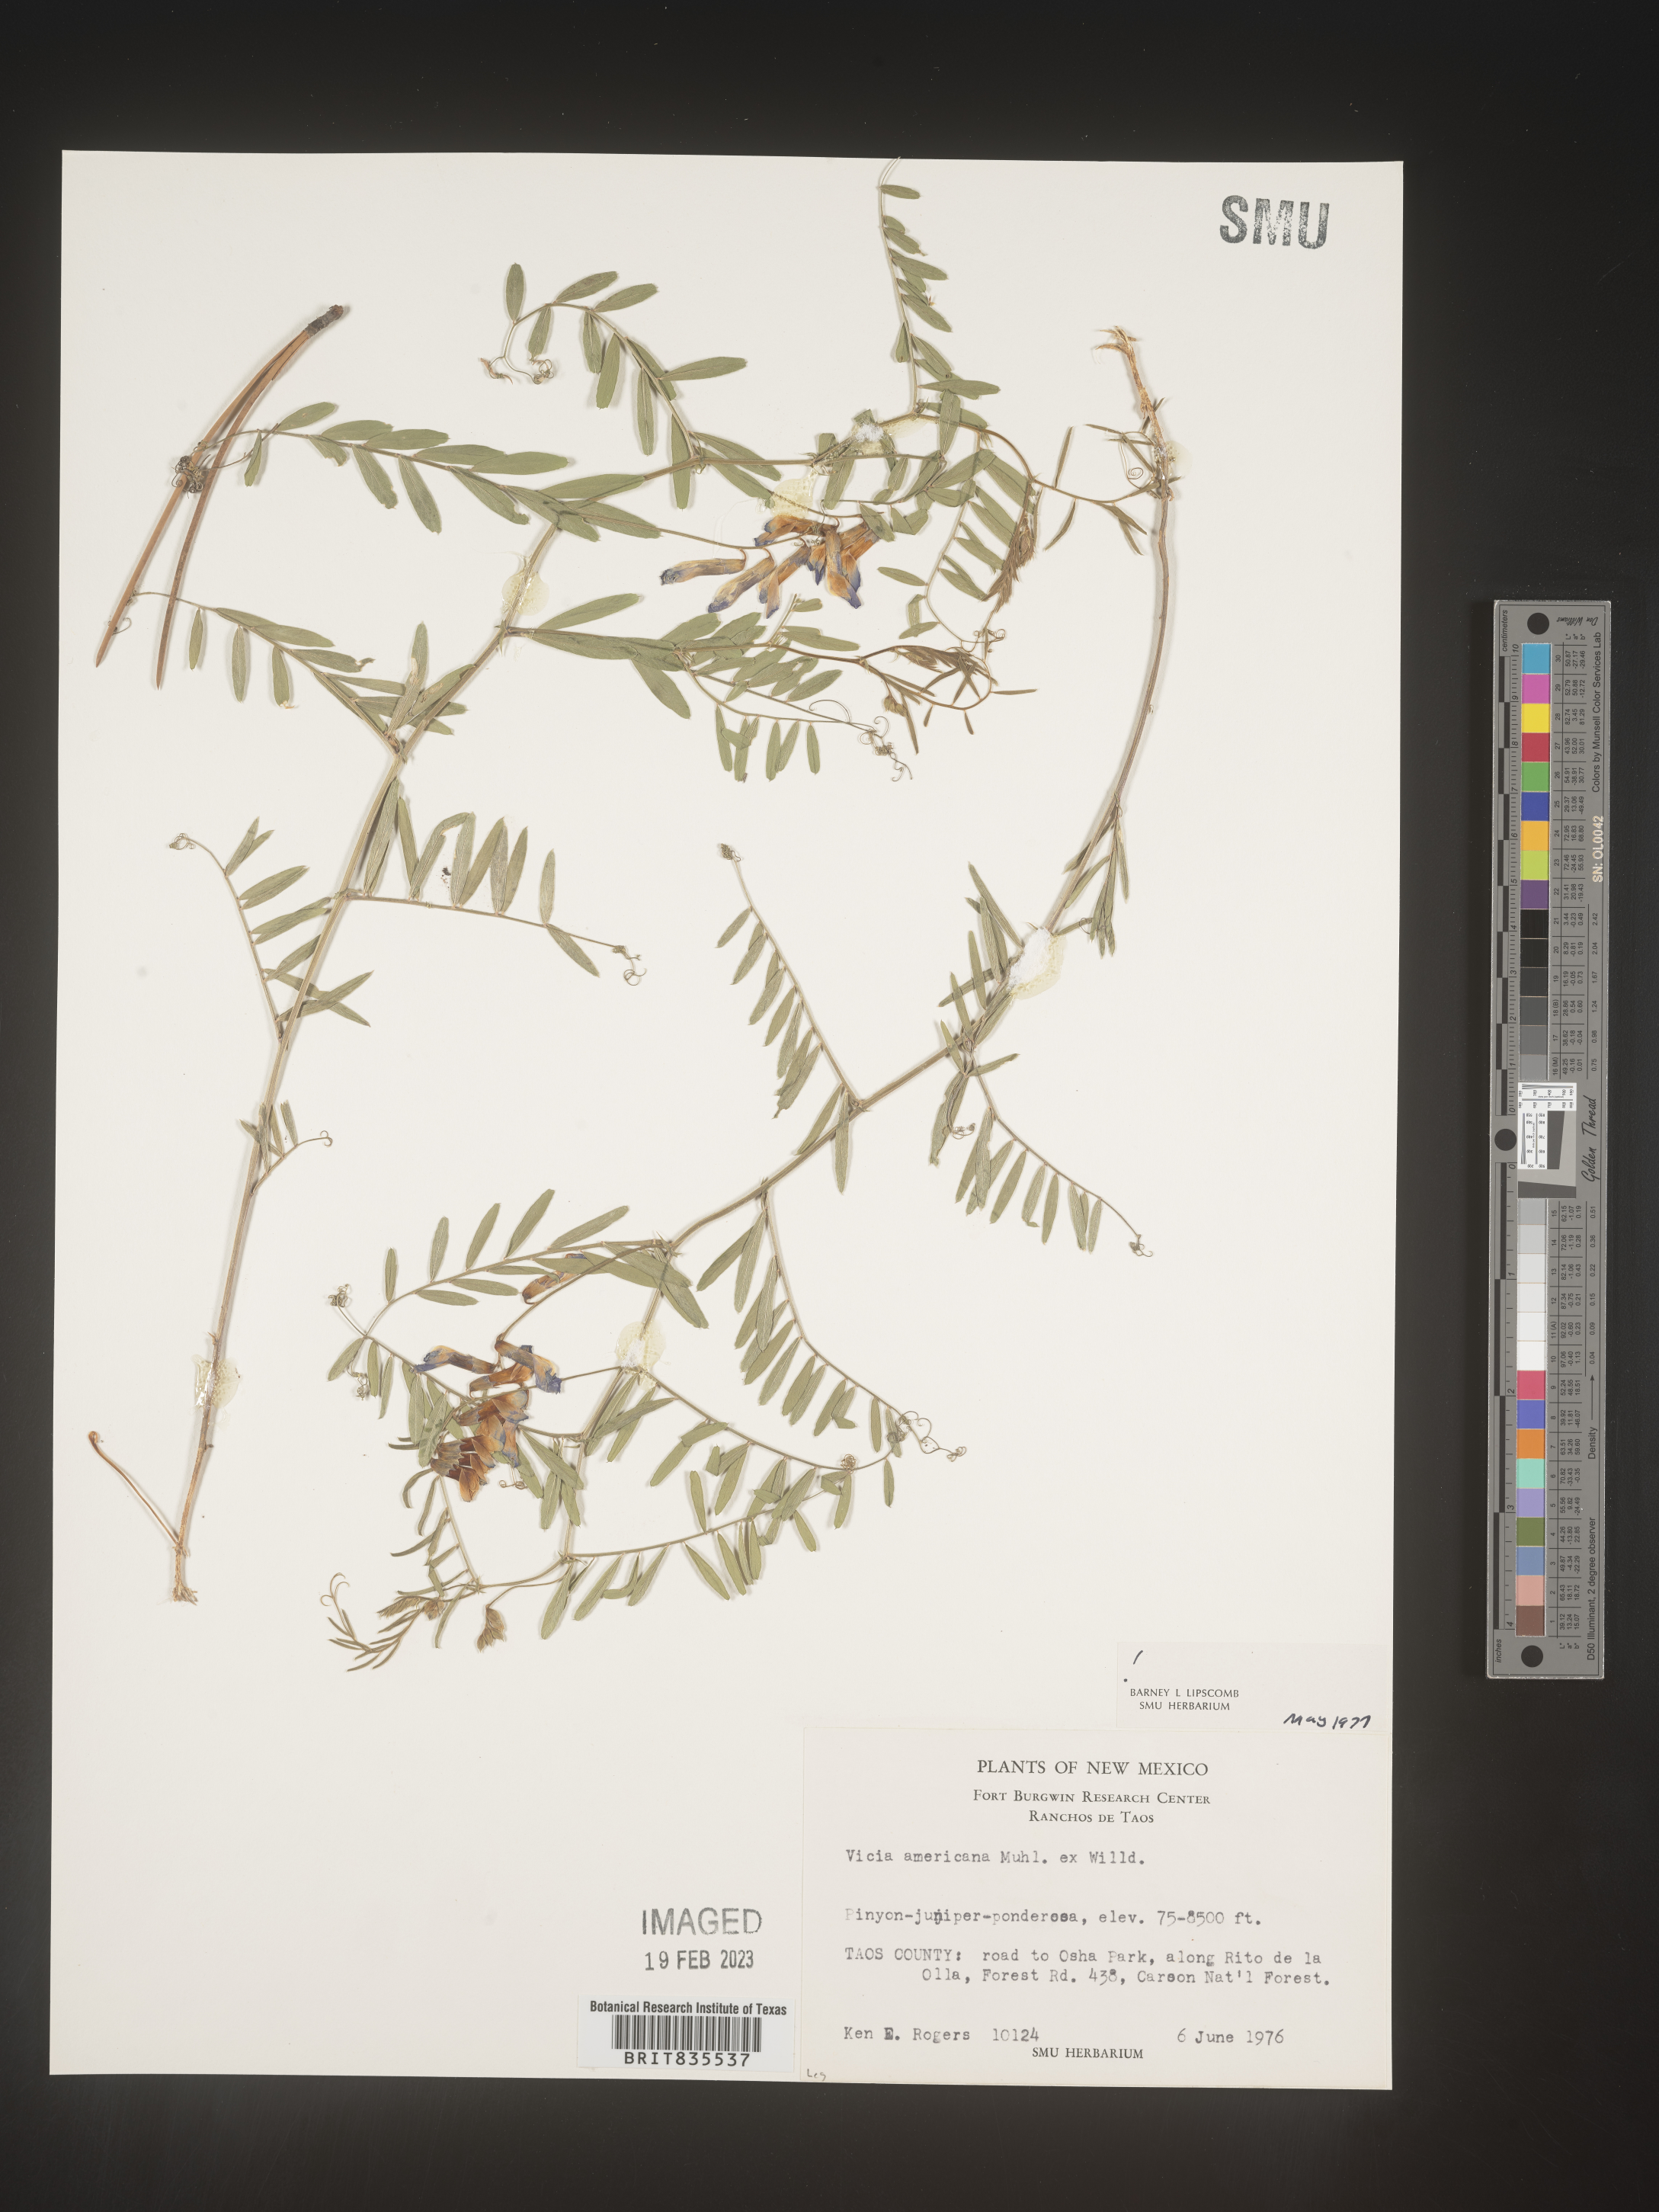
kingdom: Plantae
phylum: Tracheophyta
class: Magnoliopsida
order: Fabales
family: Fabaceae
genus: Vicia
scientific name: Vicia americana
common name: American vetch
